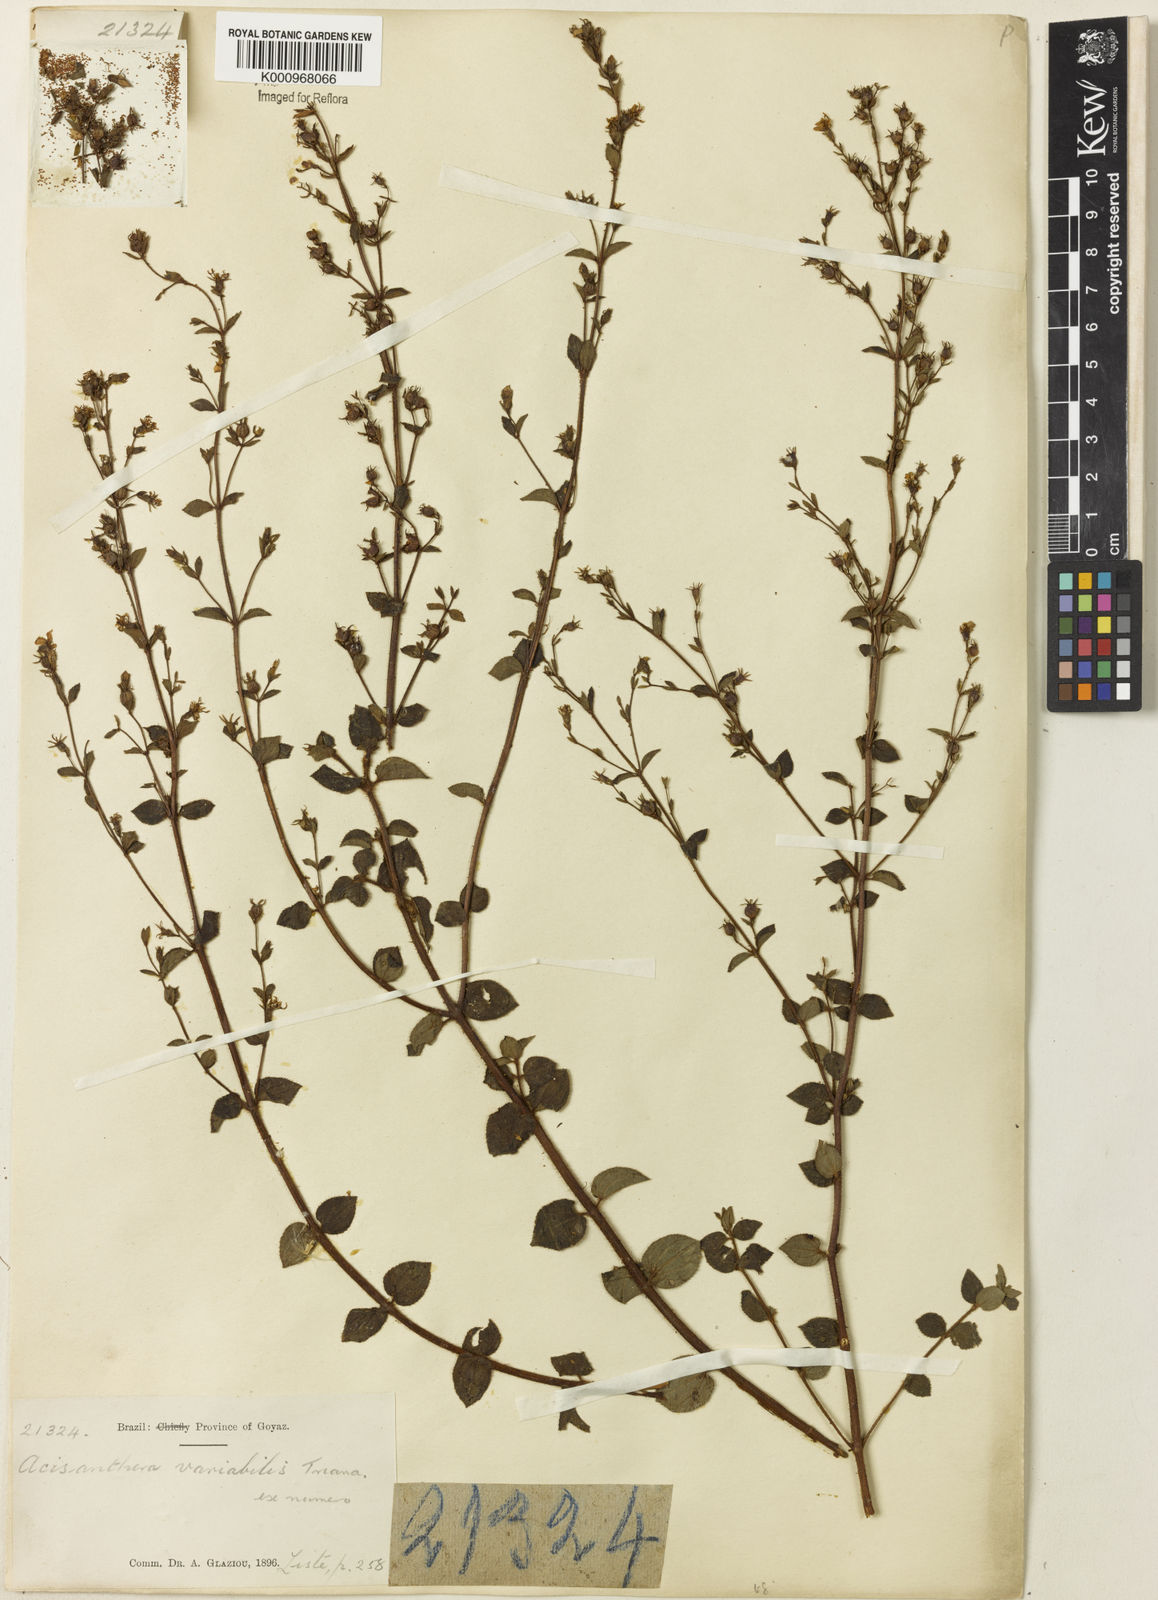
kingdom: Plantae
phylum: Tracheophyta
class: Magnoliopsida
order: Myrtales
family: Melastomataceae
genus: Acisanthera
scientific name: Acisanthera variabilis
